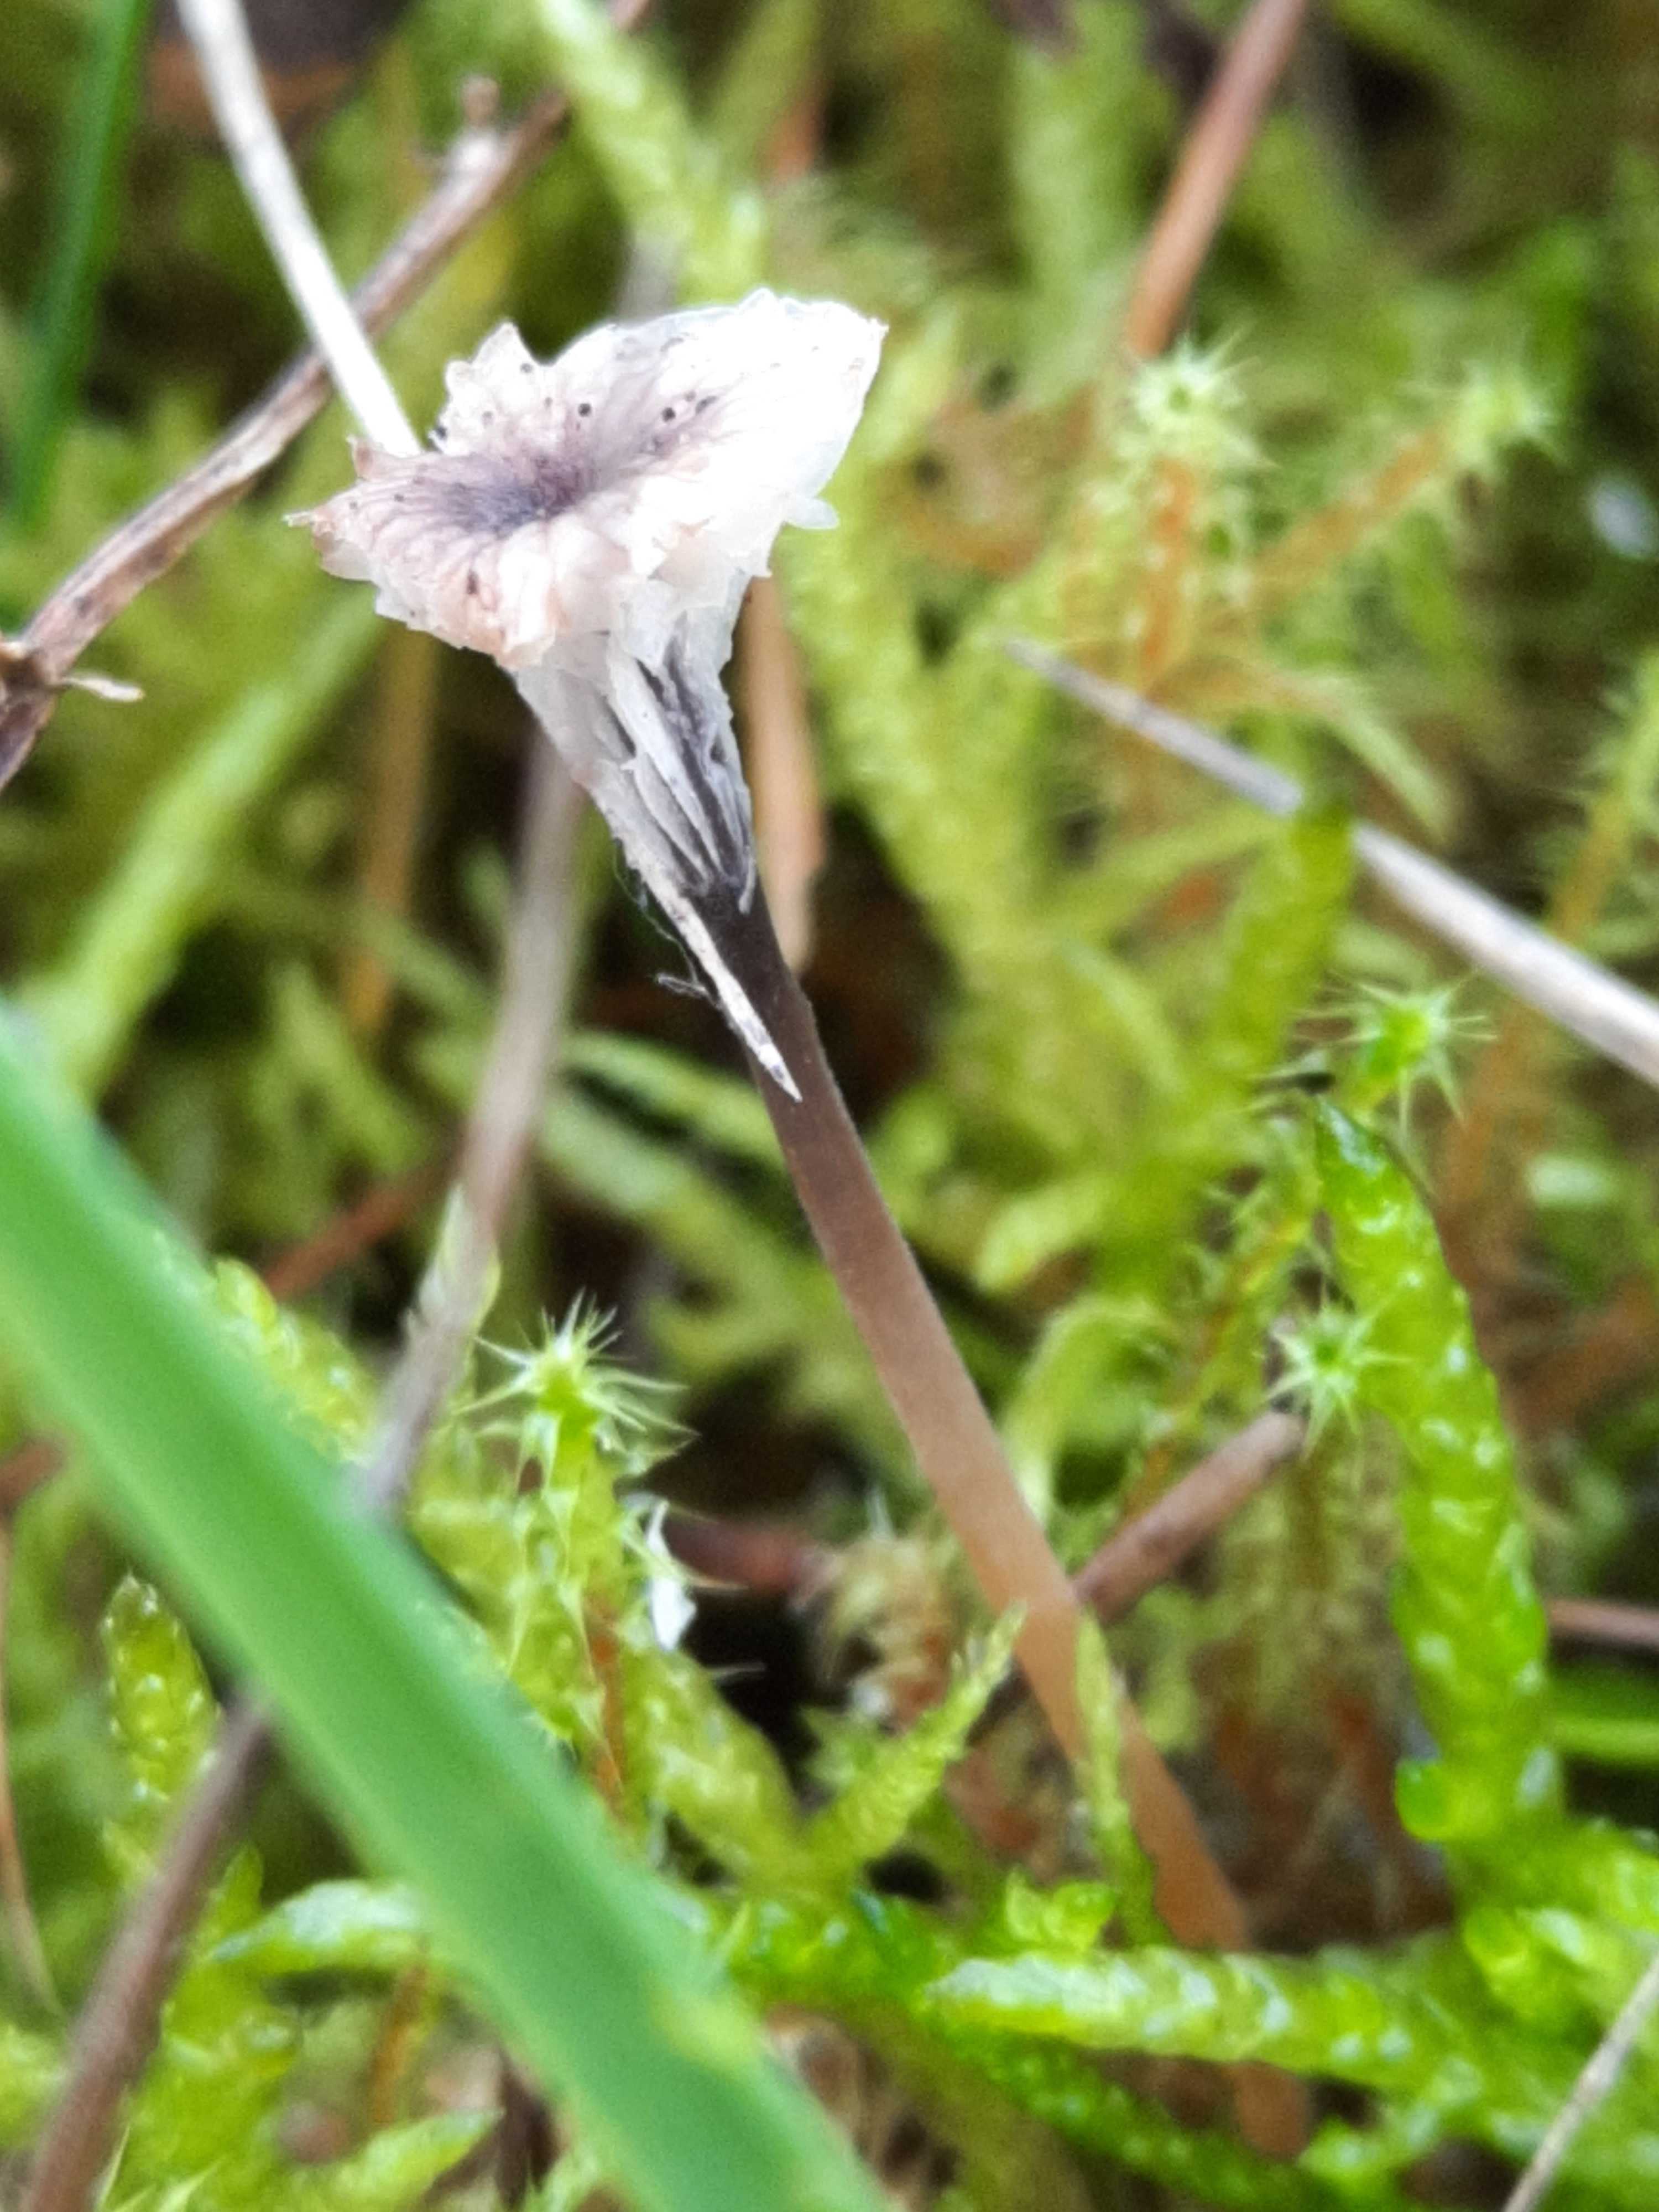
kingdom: Fungi
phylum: Basidiomycota
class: Agaricomycetes
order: Hymenochaetales
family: Rickenellaceae
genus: Rickenella
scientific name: Rickenella swartzii
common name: finstokket mosnavlehat
